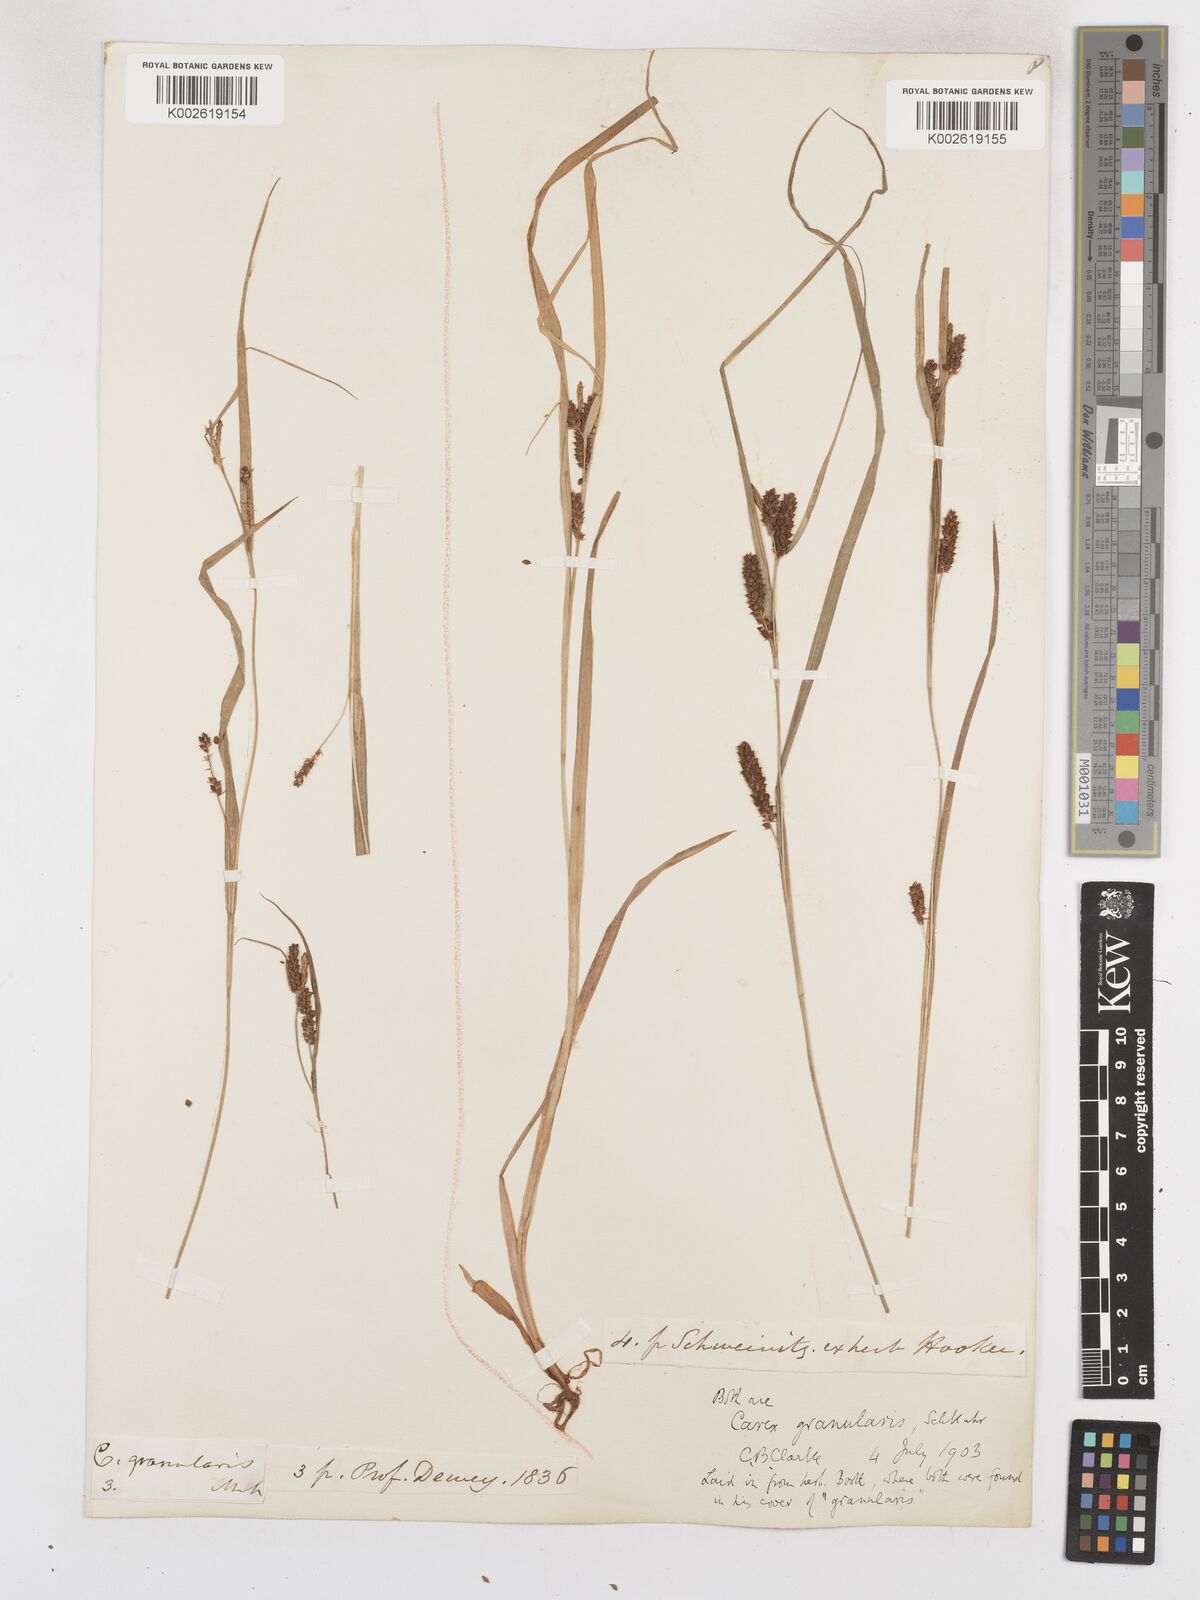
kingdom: Plantae
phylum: Tracheophyta
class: Liliopsida
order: Poales
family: Cyperaceae
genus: Carex
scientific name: Carex granularis
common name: Granular sedge
